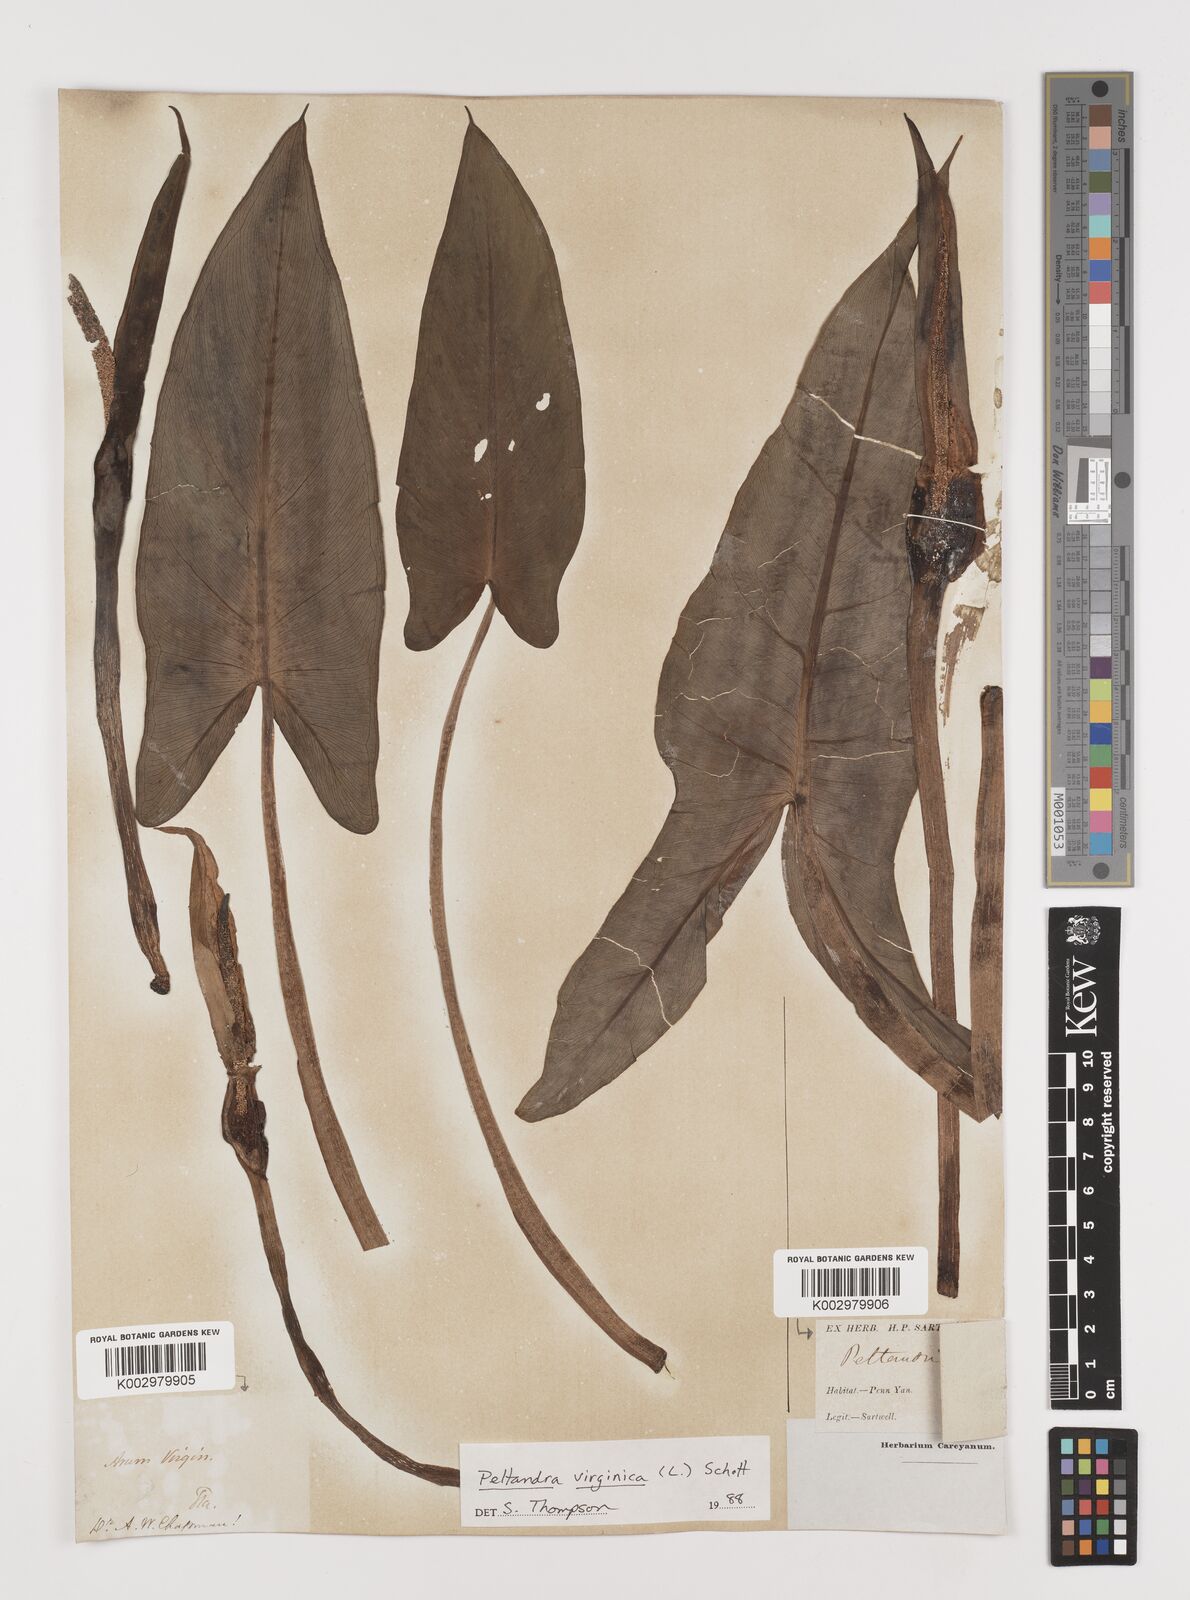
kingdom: Plantae
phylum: Tracheophyta
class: Liliopsida
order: Alismatales
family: Araceae
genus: Peltandra
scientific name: Peltandra virginica
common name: Arrow arum
